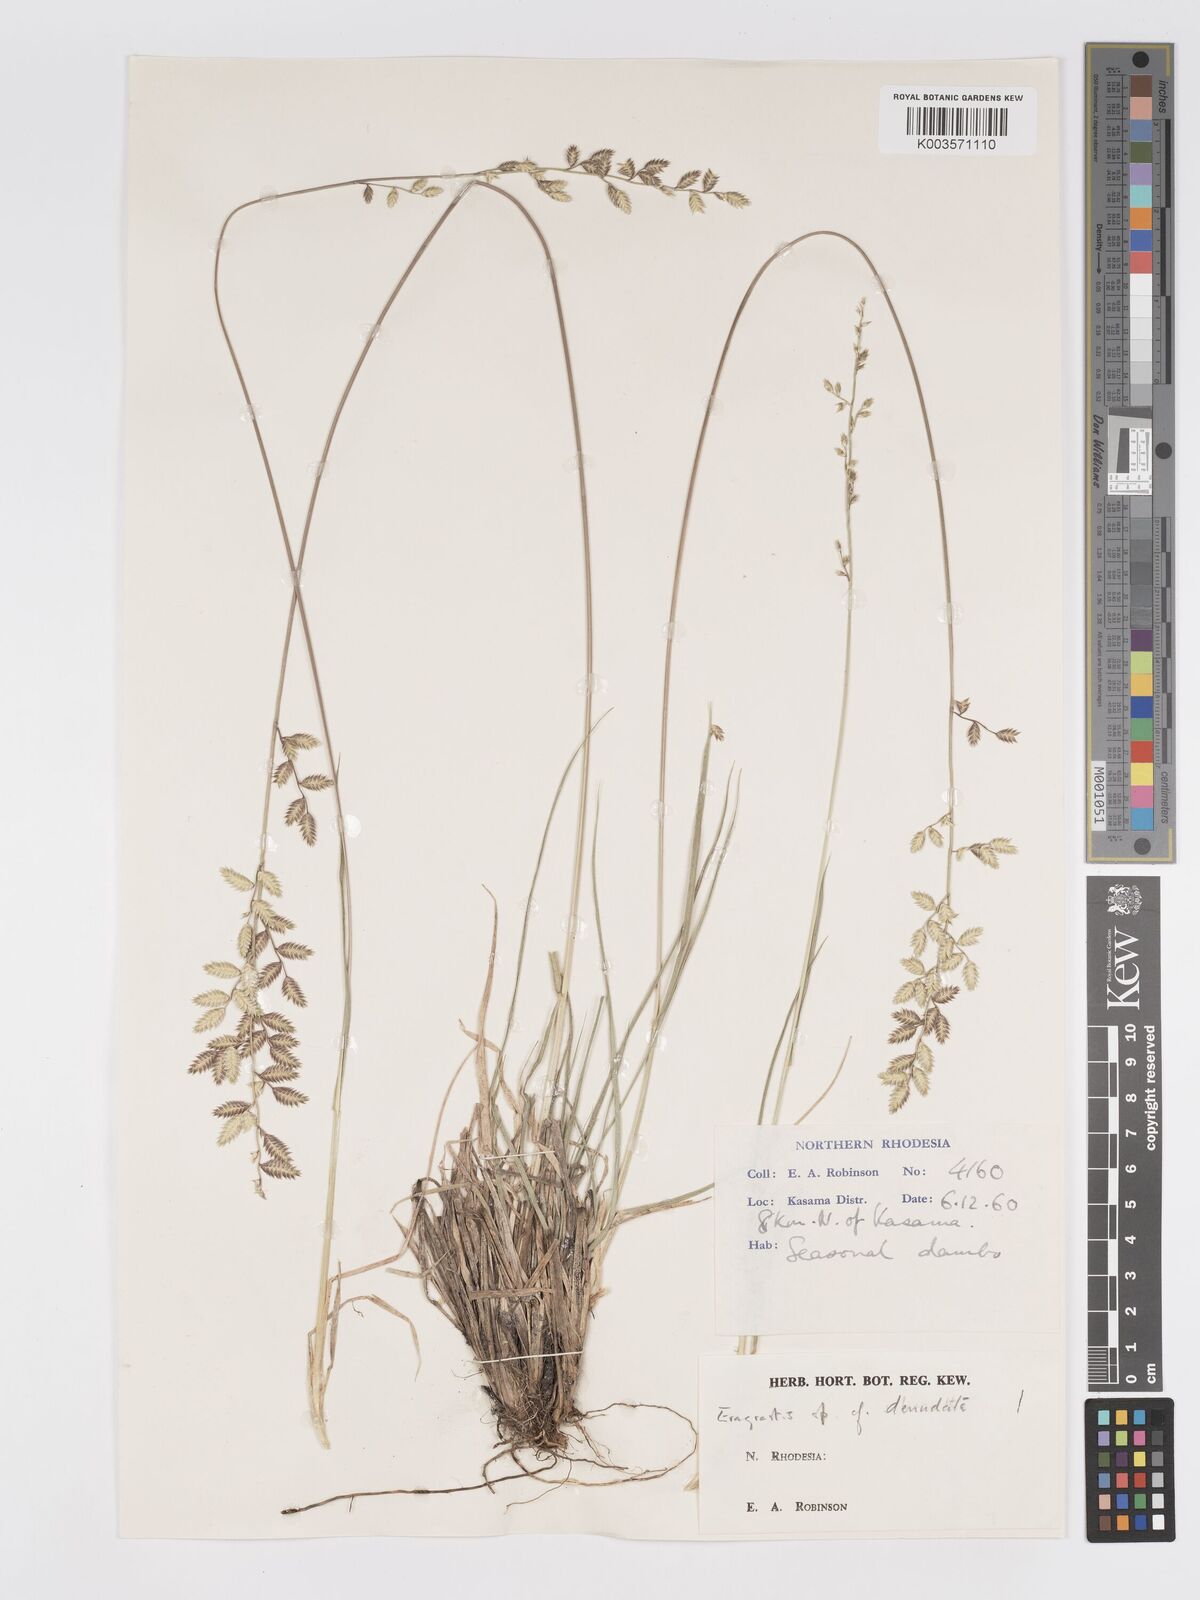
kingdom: Plantae
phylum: Tracheophyta
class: Liliopsida
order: Poales
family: Poaceae
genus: Eragrostis
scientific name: Eragrostis nindensis
